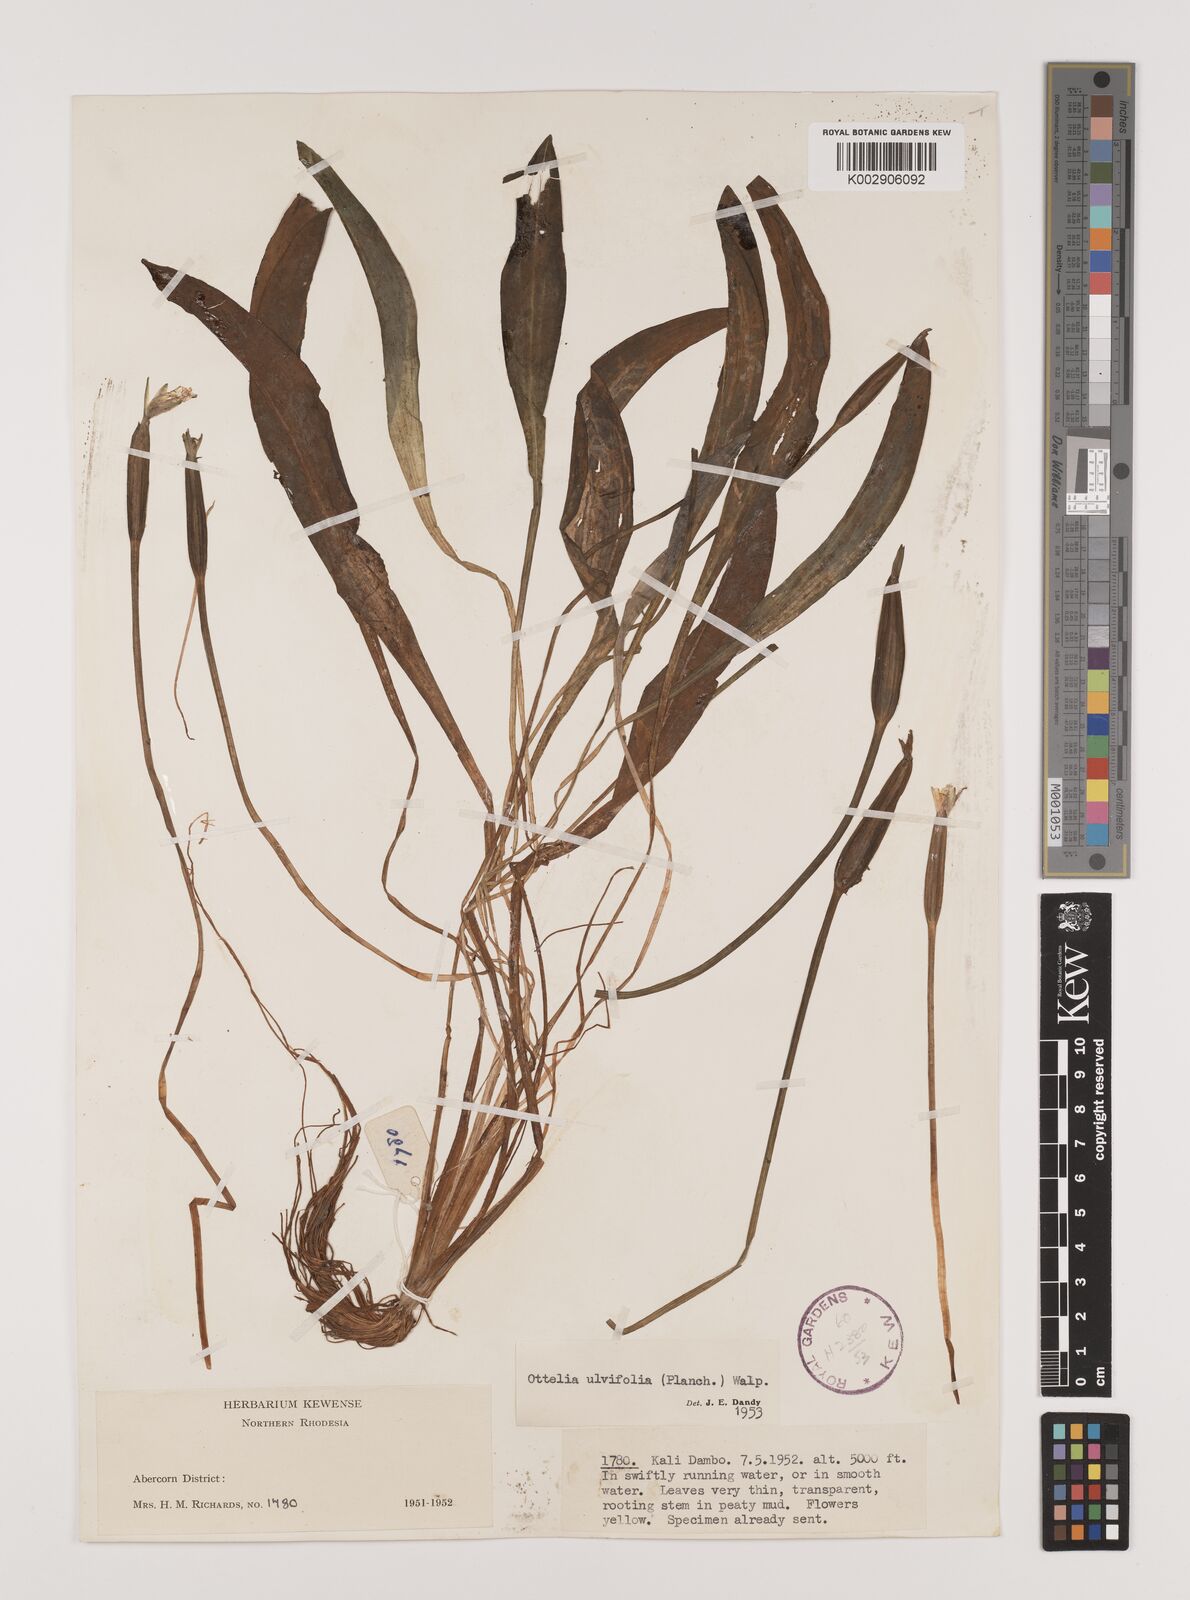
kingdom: Plantae
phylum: Tracheophyta
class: Liliopsida
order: Alismatales
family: Hydrocharitaceae
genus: Ottelia
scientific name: Ottelia ulvifolia
